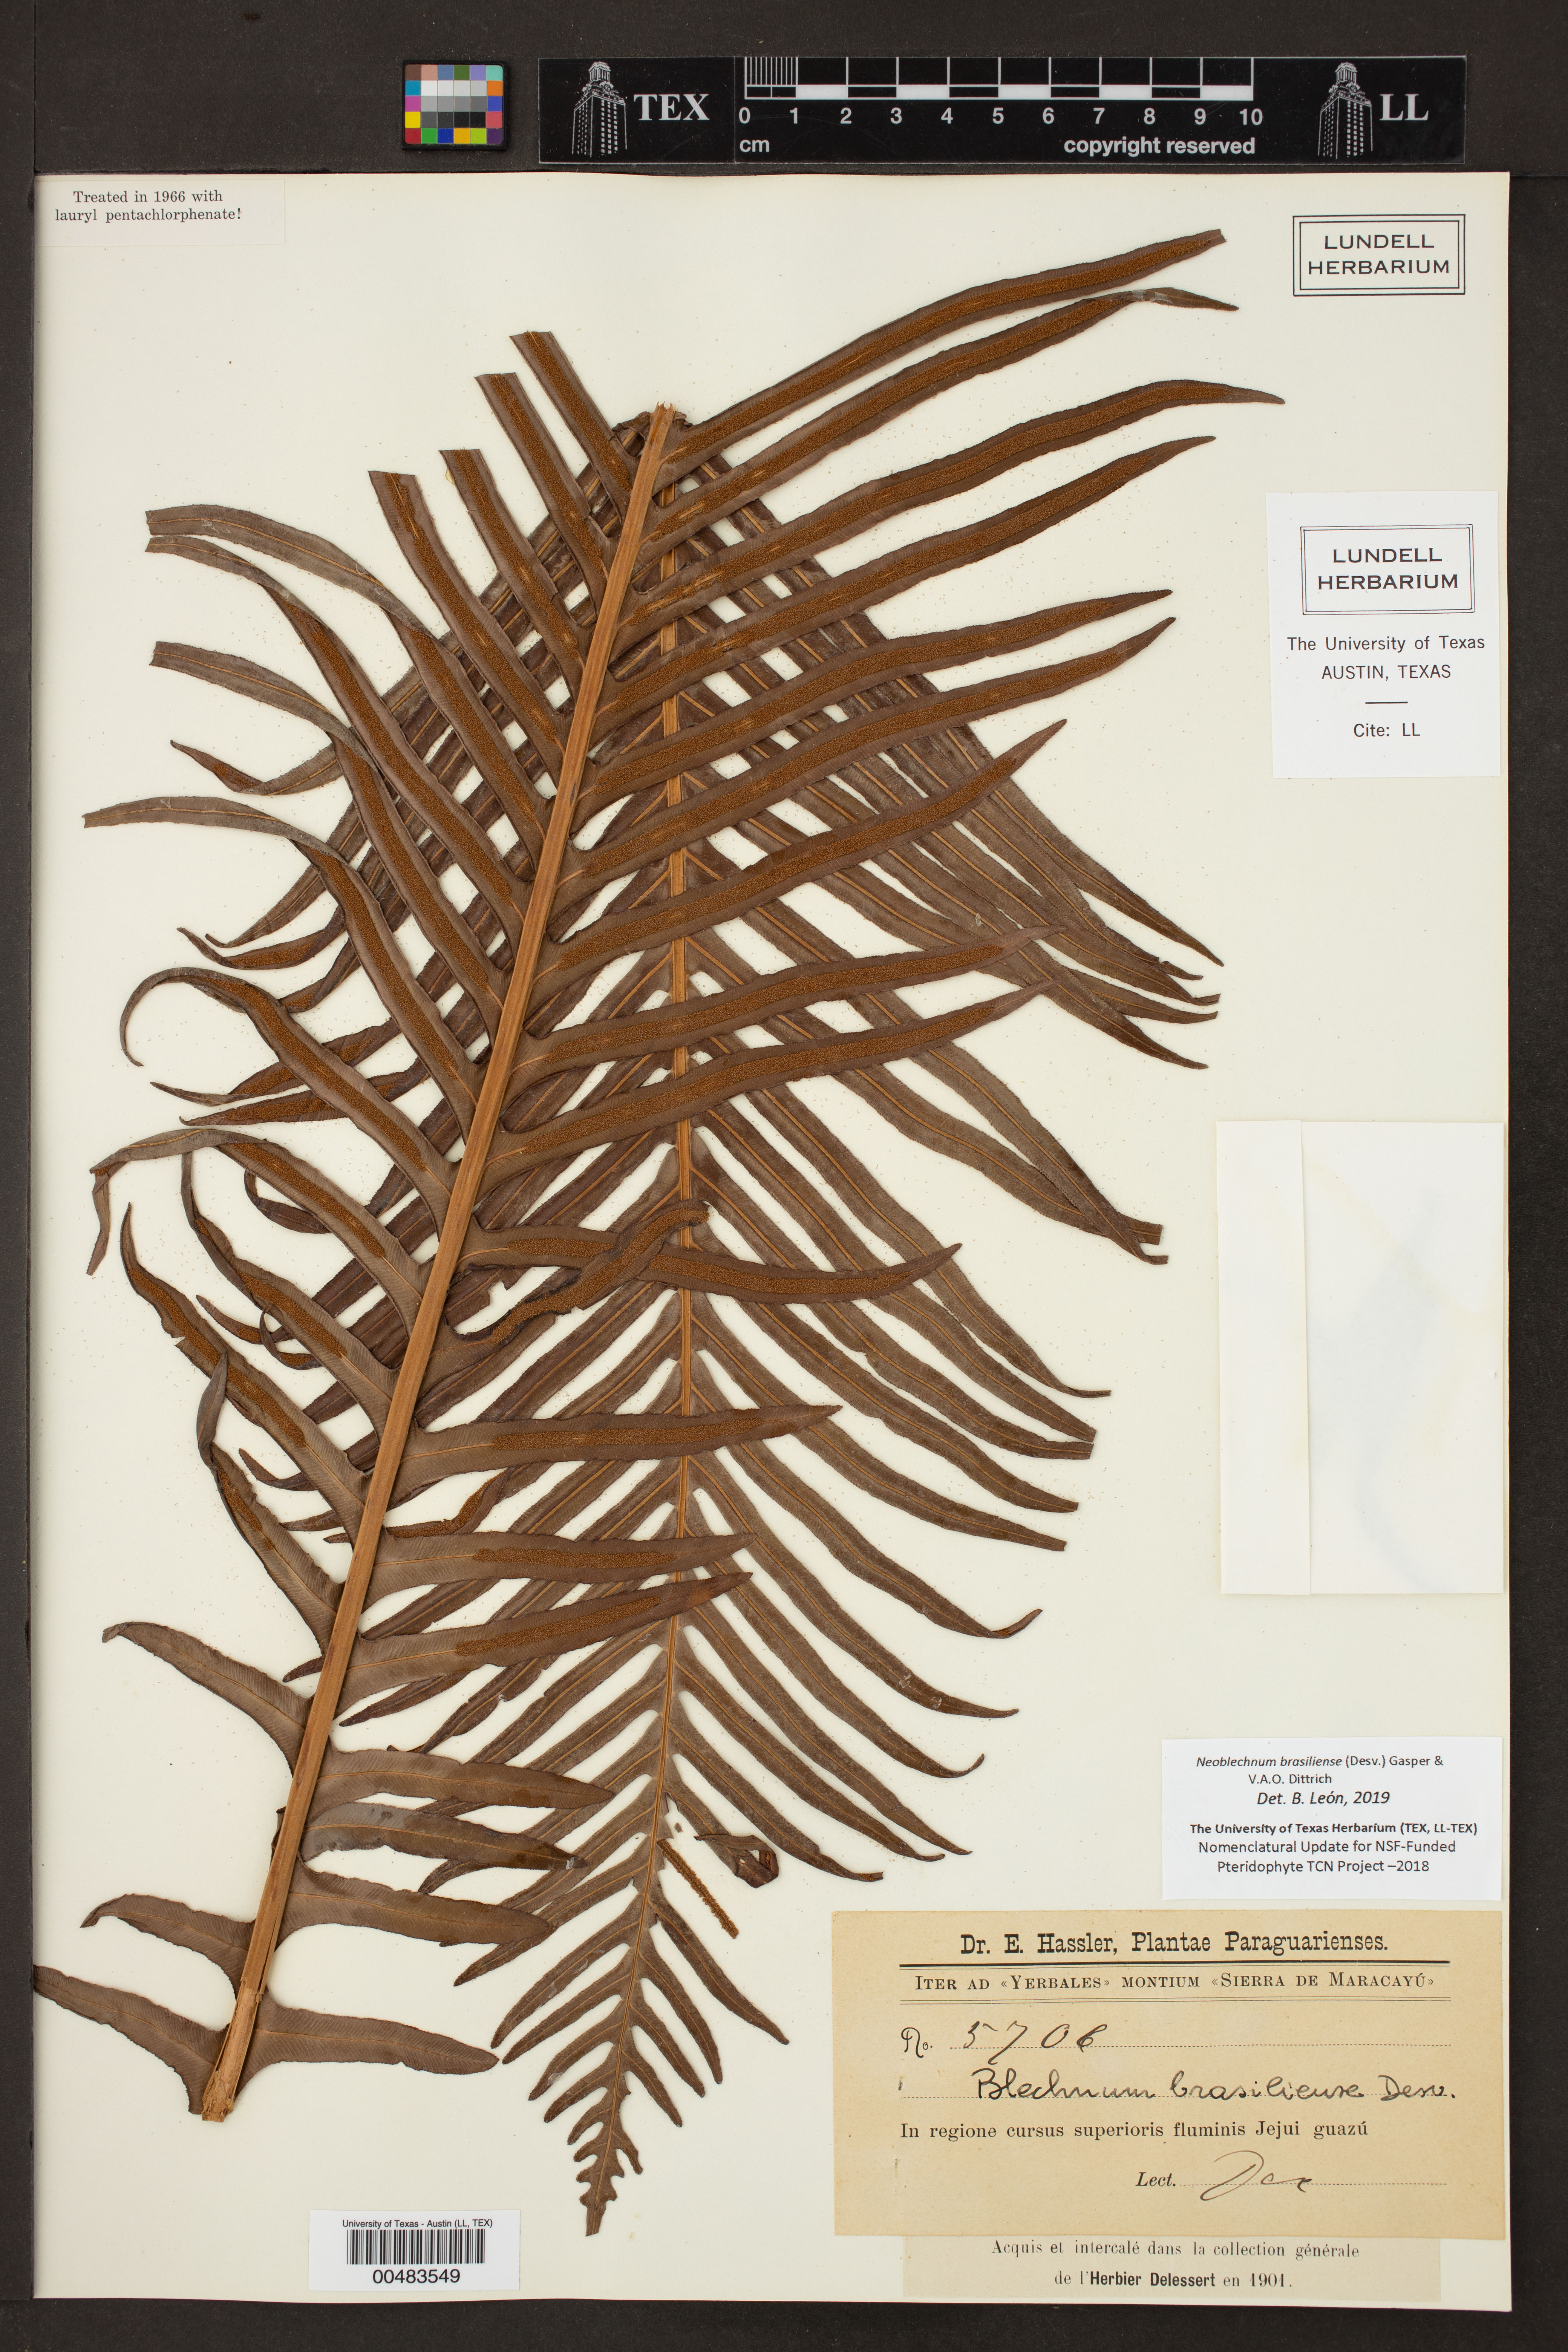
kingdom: Plantae
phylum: Tracheophyta
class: Polypodiopsida
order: Polypodiales
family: Blechnaceae
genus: Neoblechnum
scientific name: Neoblechnum brasiliense
